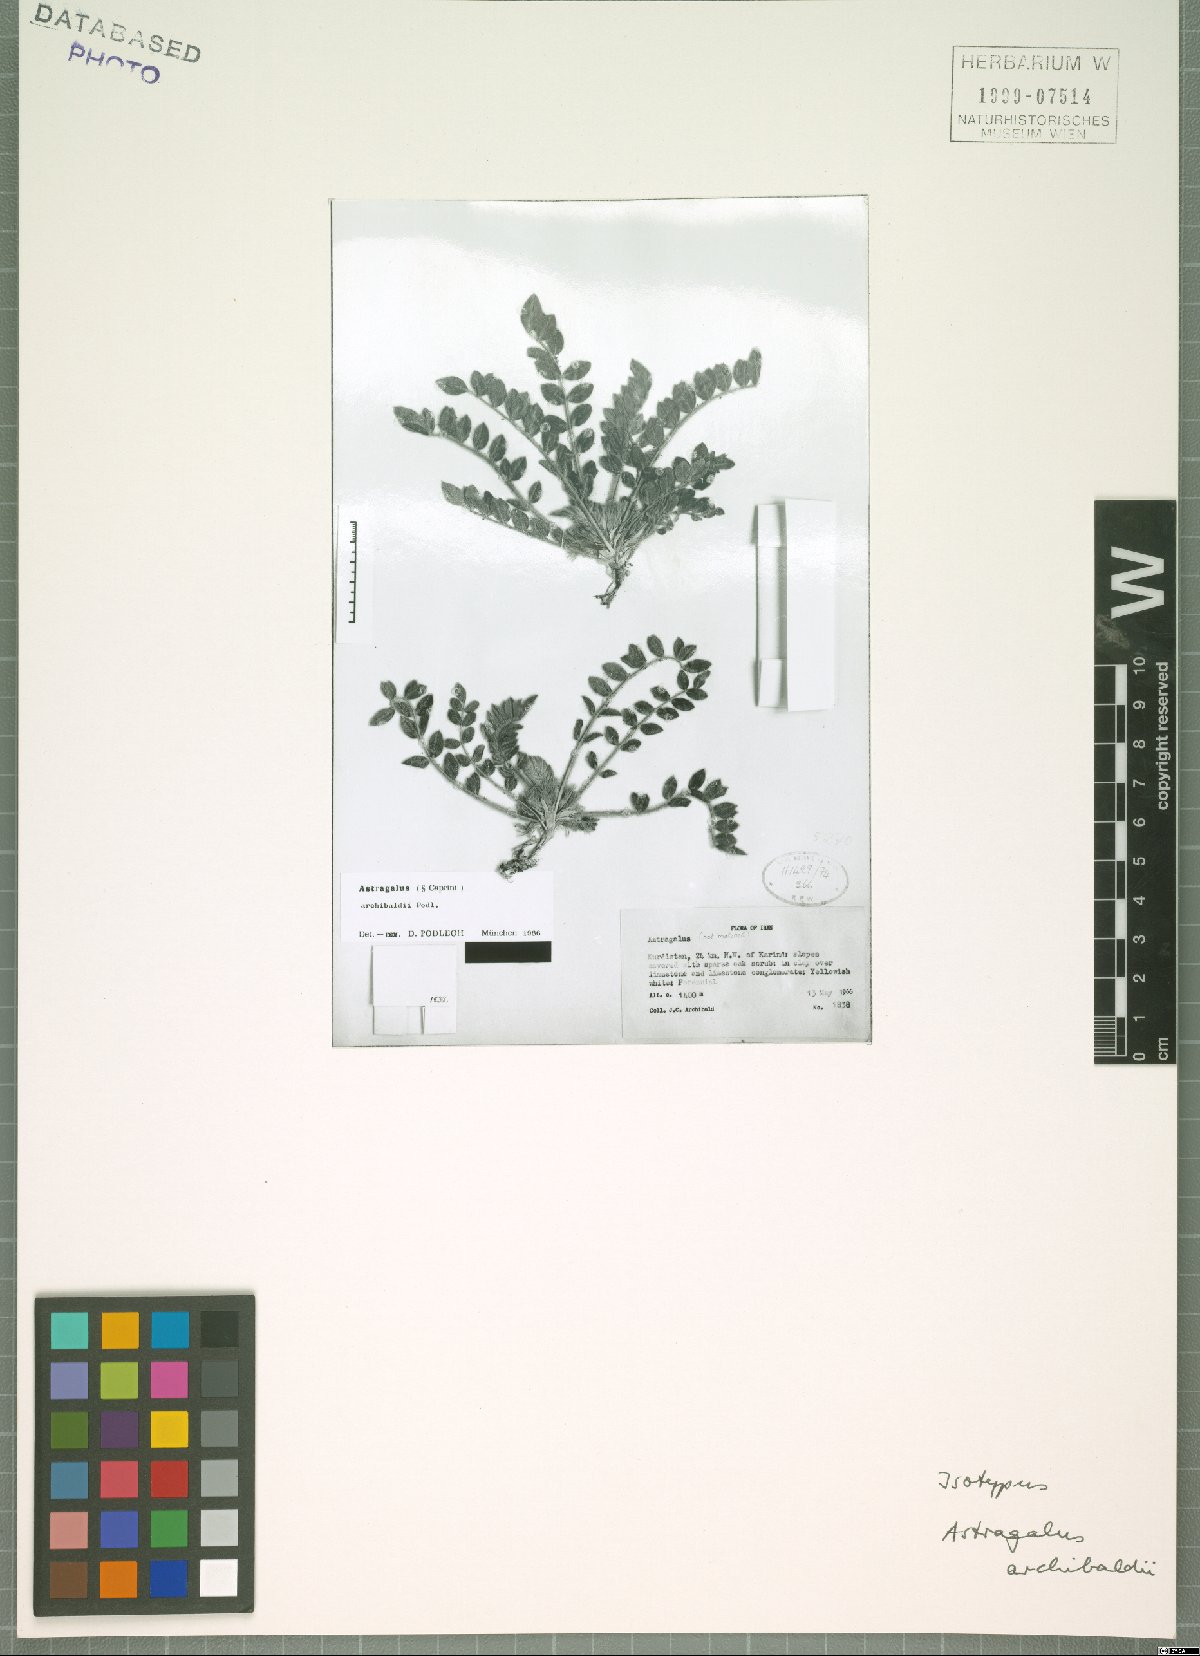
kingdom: Plantae
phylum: Tracheophyta
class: Magnoliopsida
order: Fabales
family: Fabaceae
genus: Astragalus
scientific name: Astragalus archibaldii
